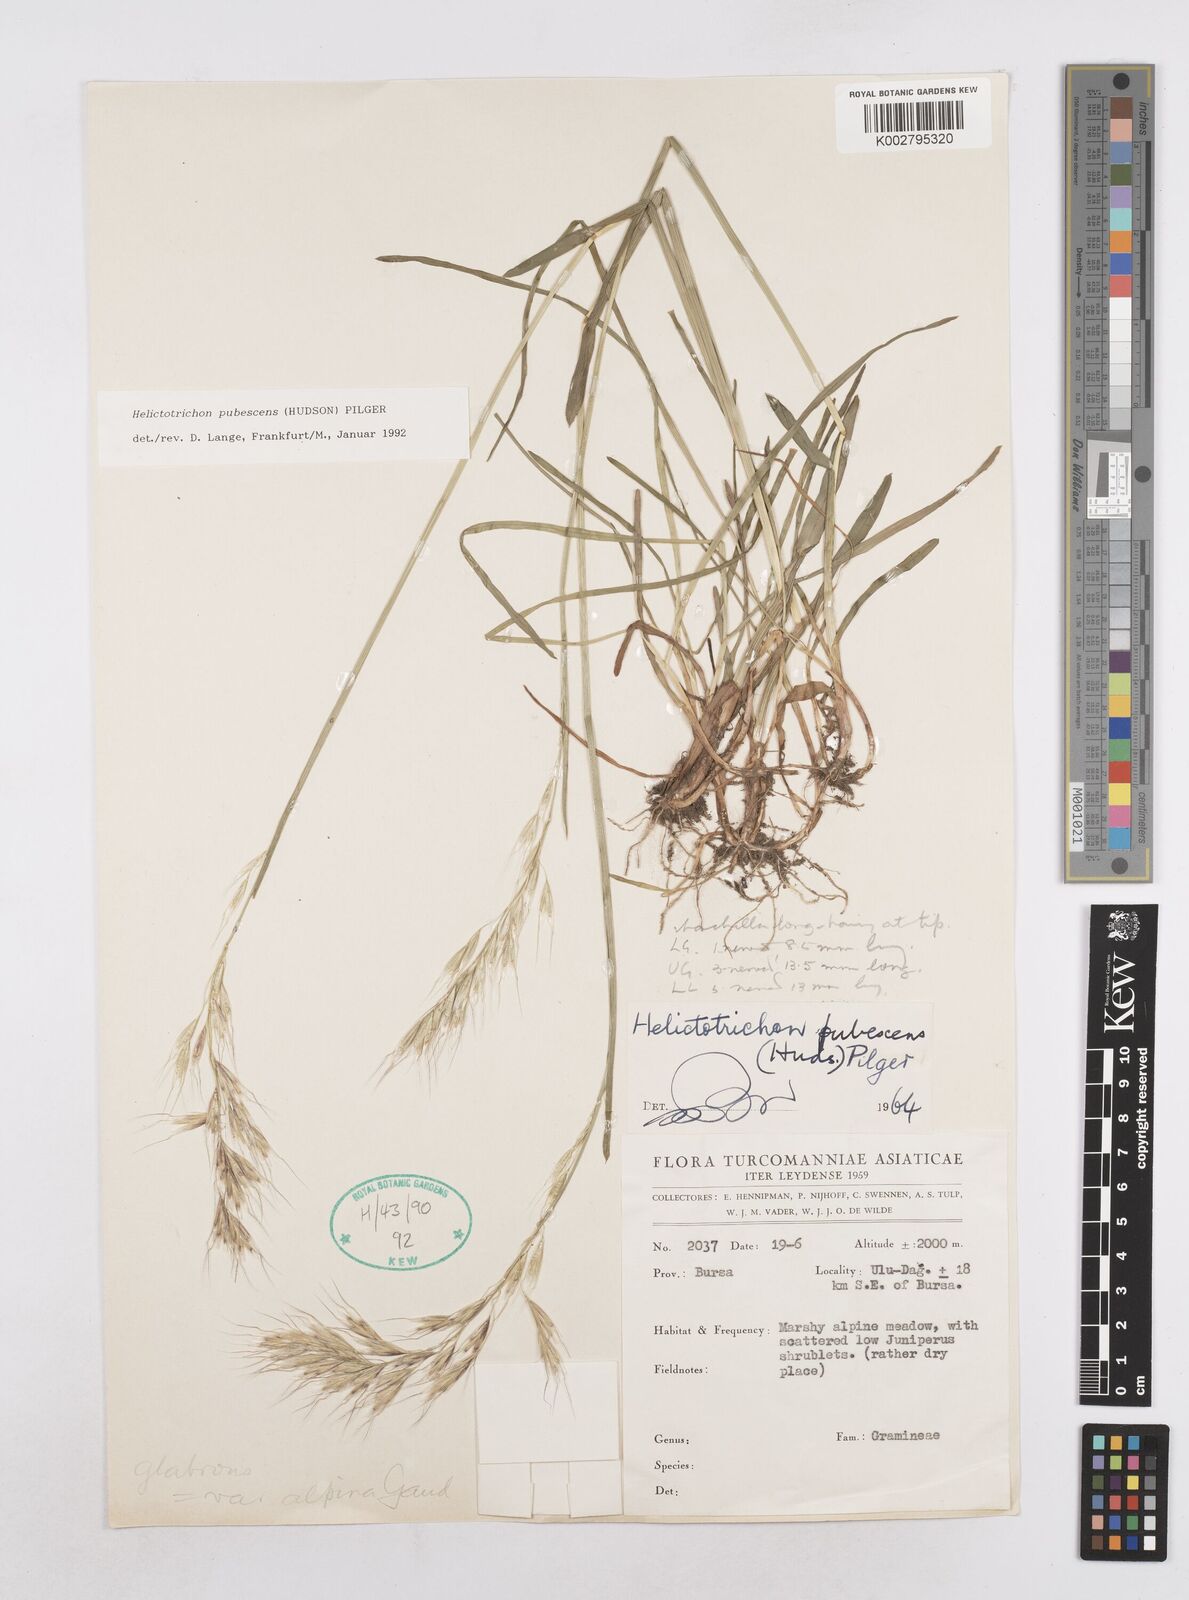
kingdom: Plantae
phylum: Tracheophyta
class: Liliopsida
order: Poales
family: Poaceae
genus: Avenula
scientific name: Avenula pubescens
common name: Downy alpine oatgrass
